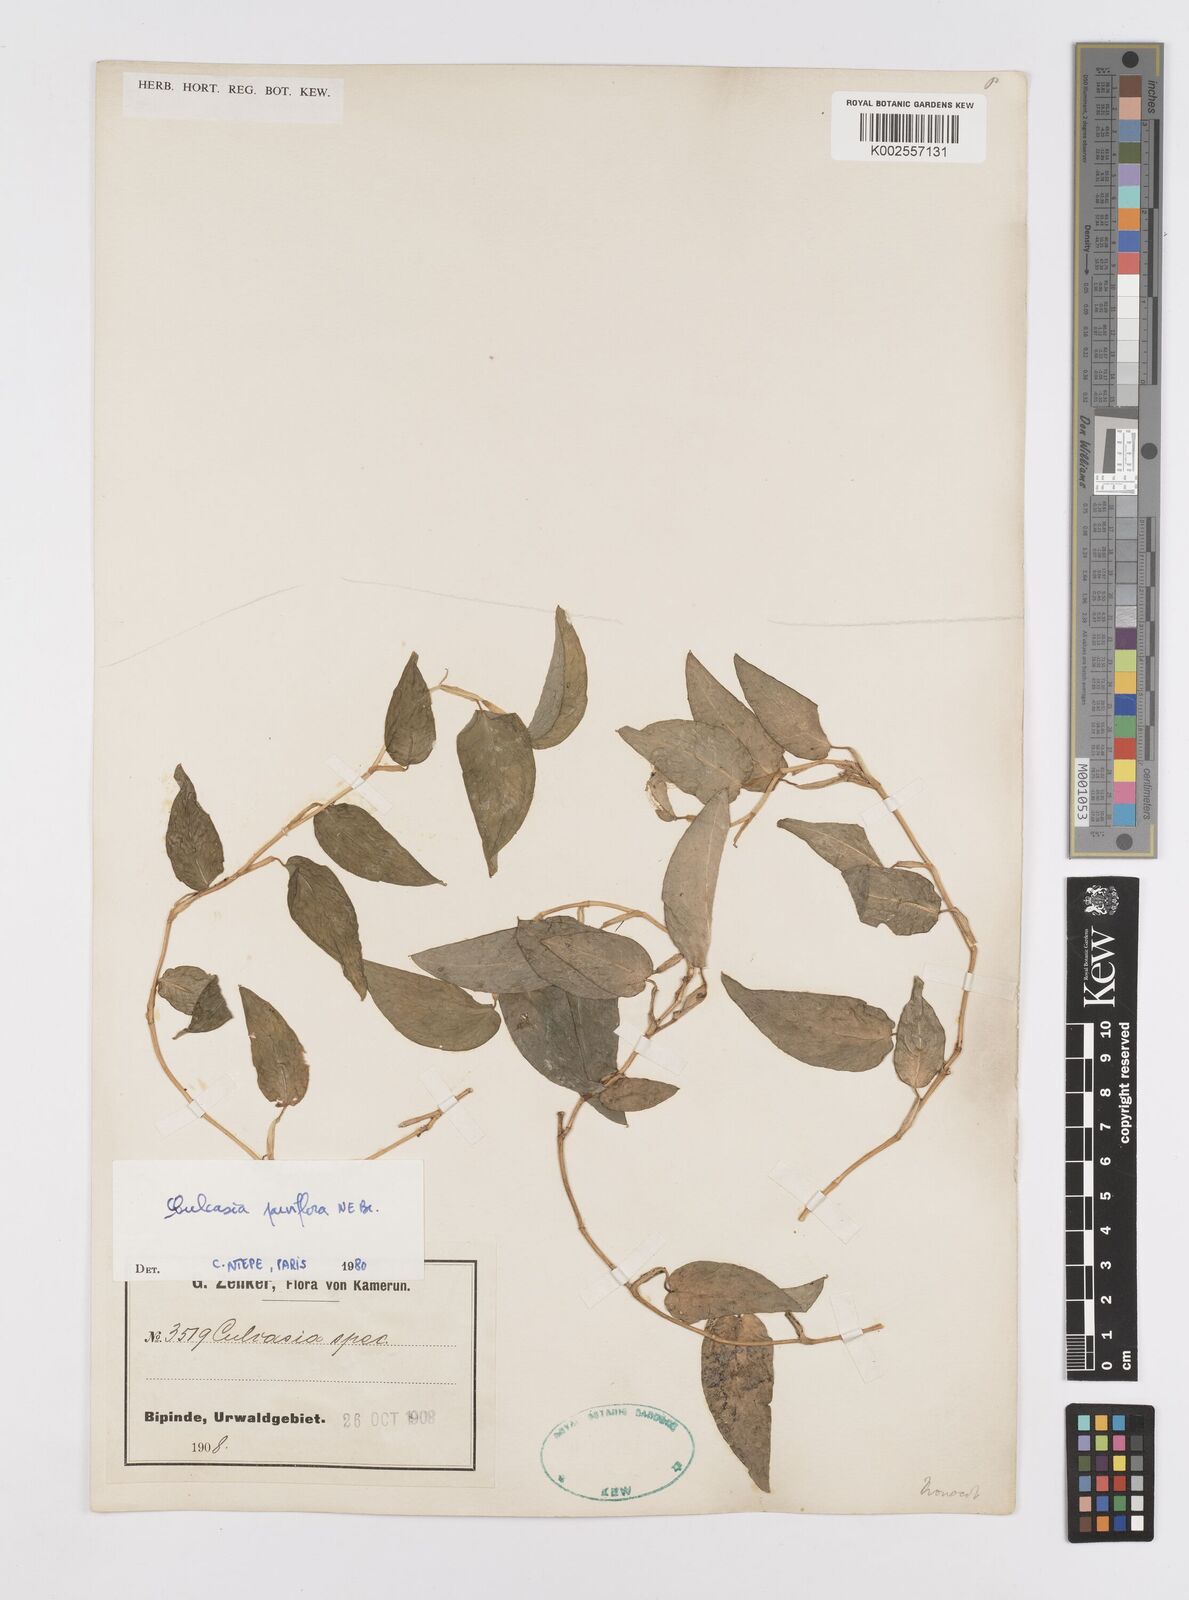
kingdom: Plantae
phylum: Tracheophyta
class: Liliopsida
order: Alismatales
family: Araceae
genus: Culcasia
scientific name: Culcasia parviflora
